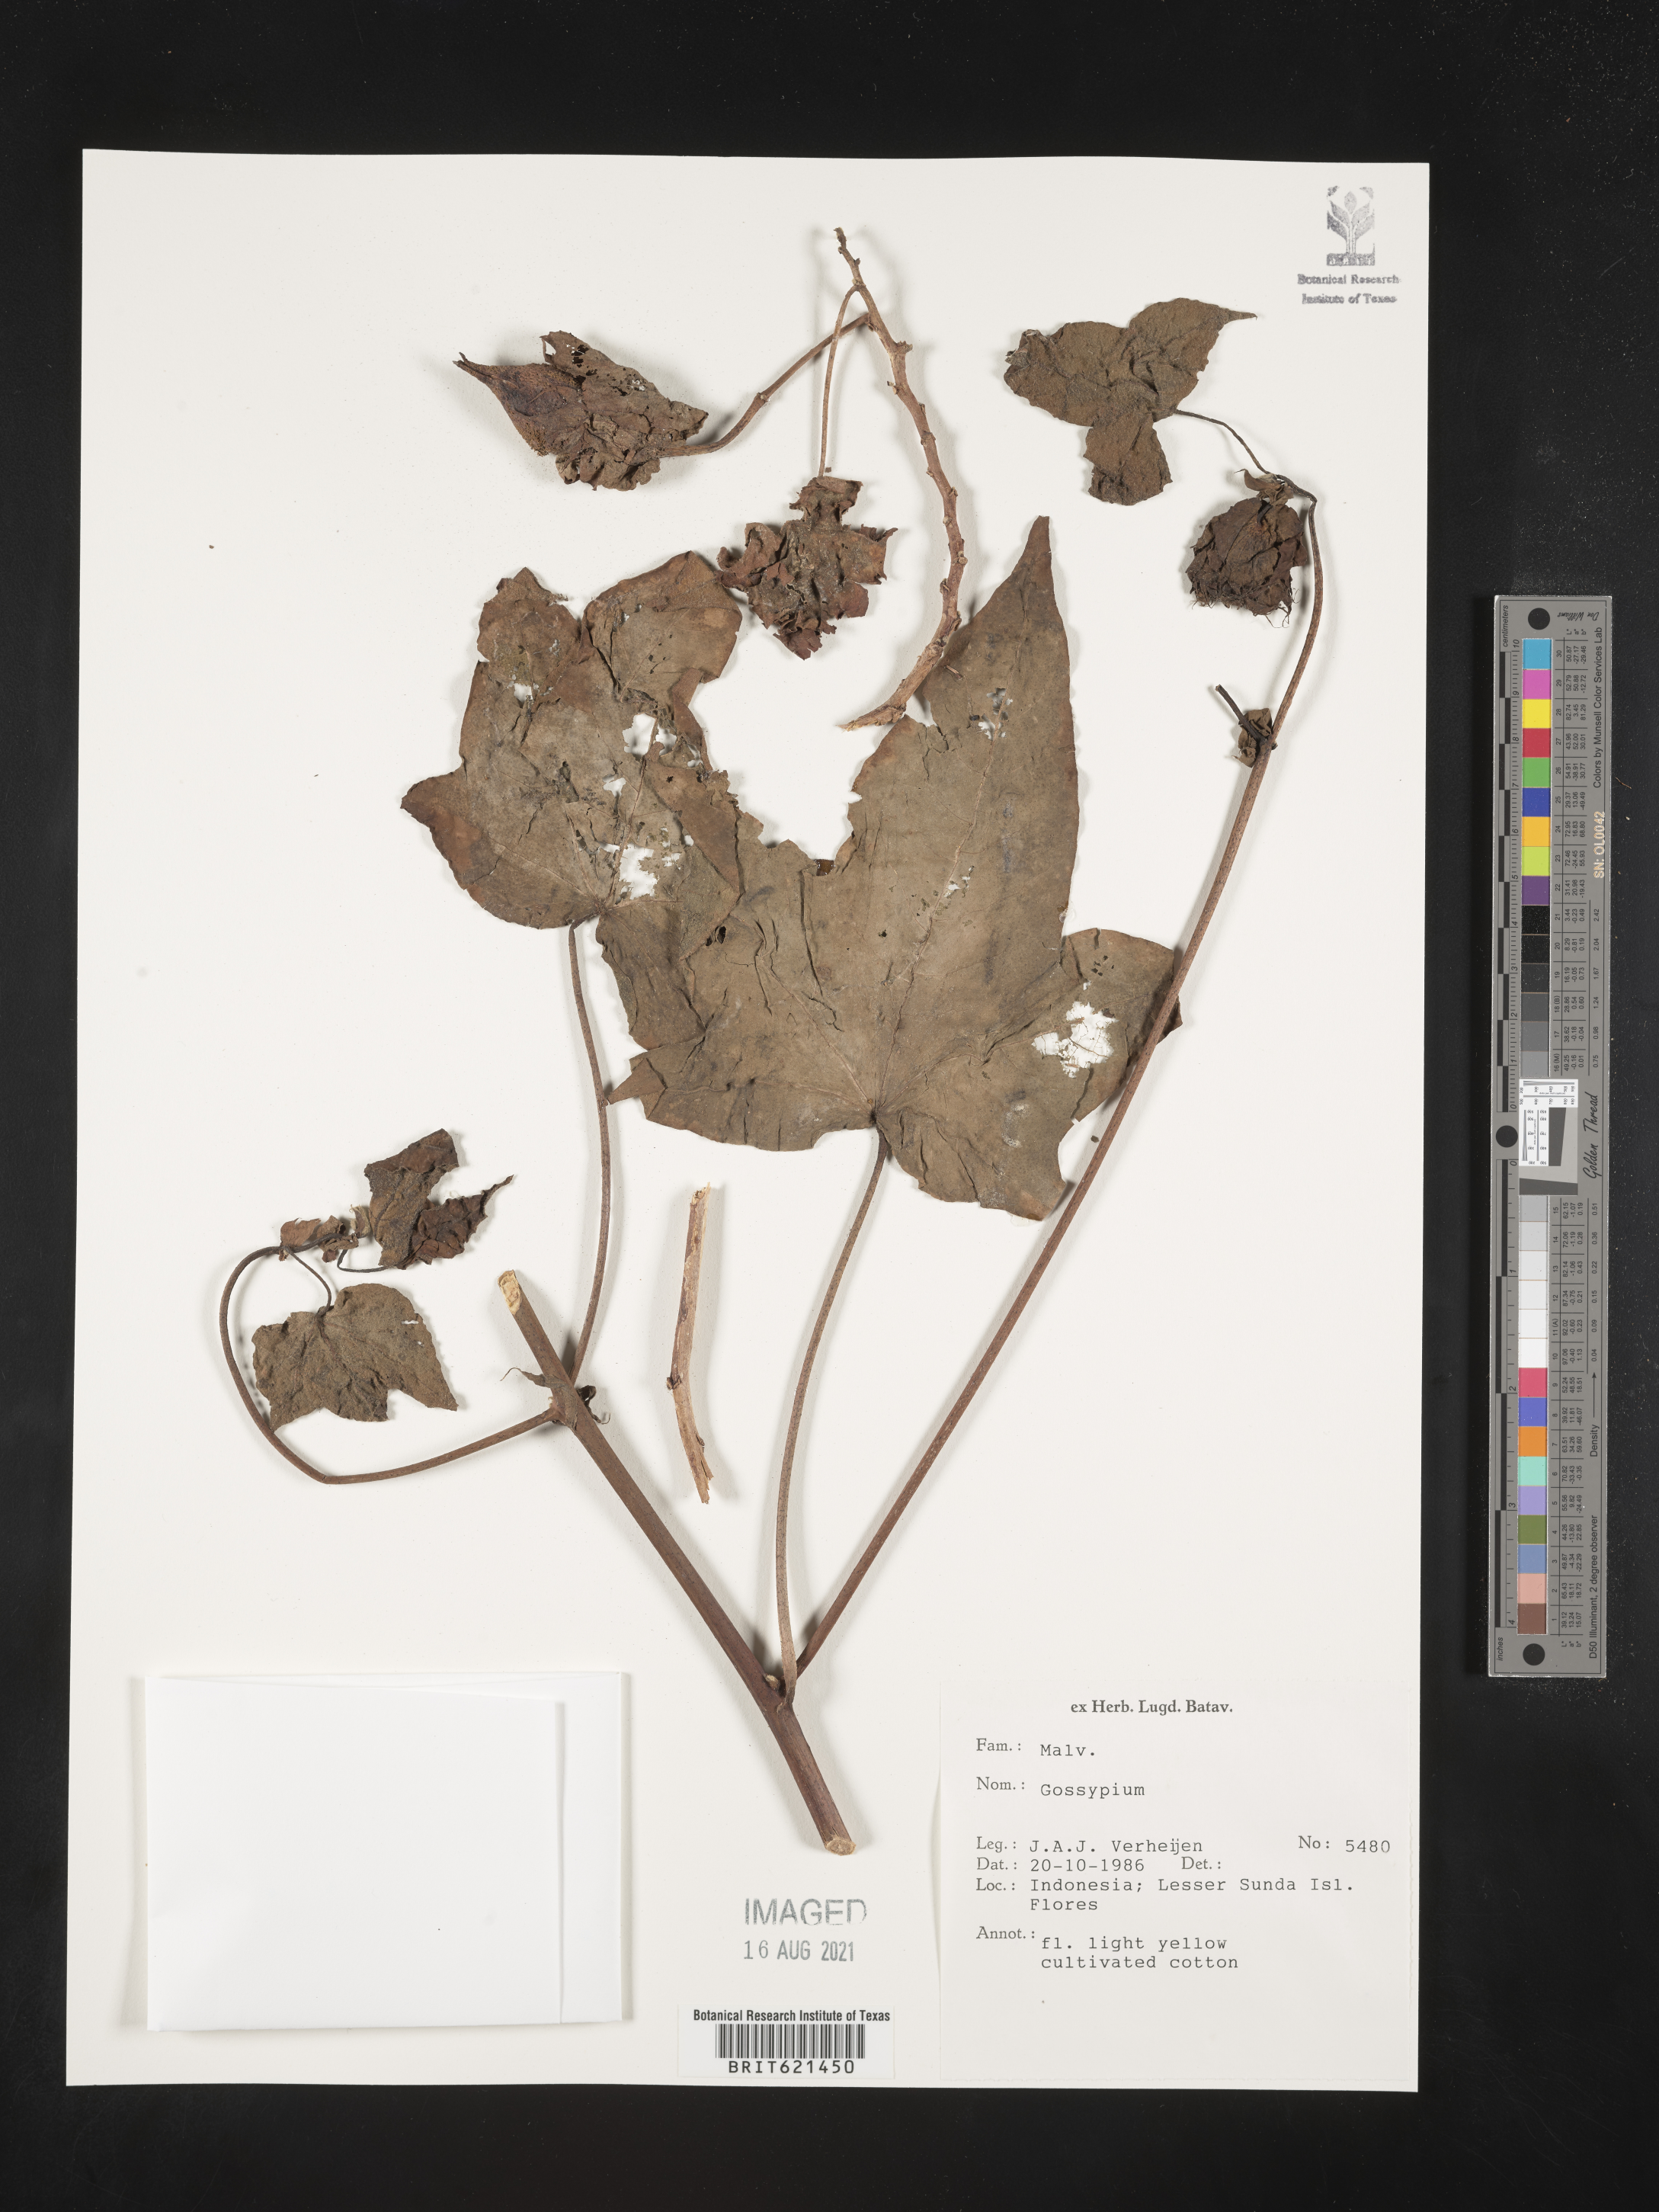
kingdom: Plantae
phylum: Tracheophyta
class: Magnoliopsida
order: Malvales
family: Malvaceae
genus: Gossypium
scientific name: Gossypium
